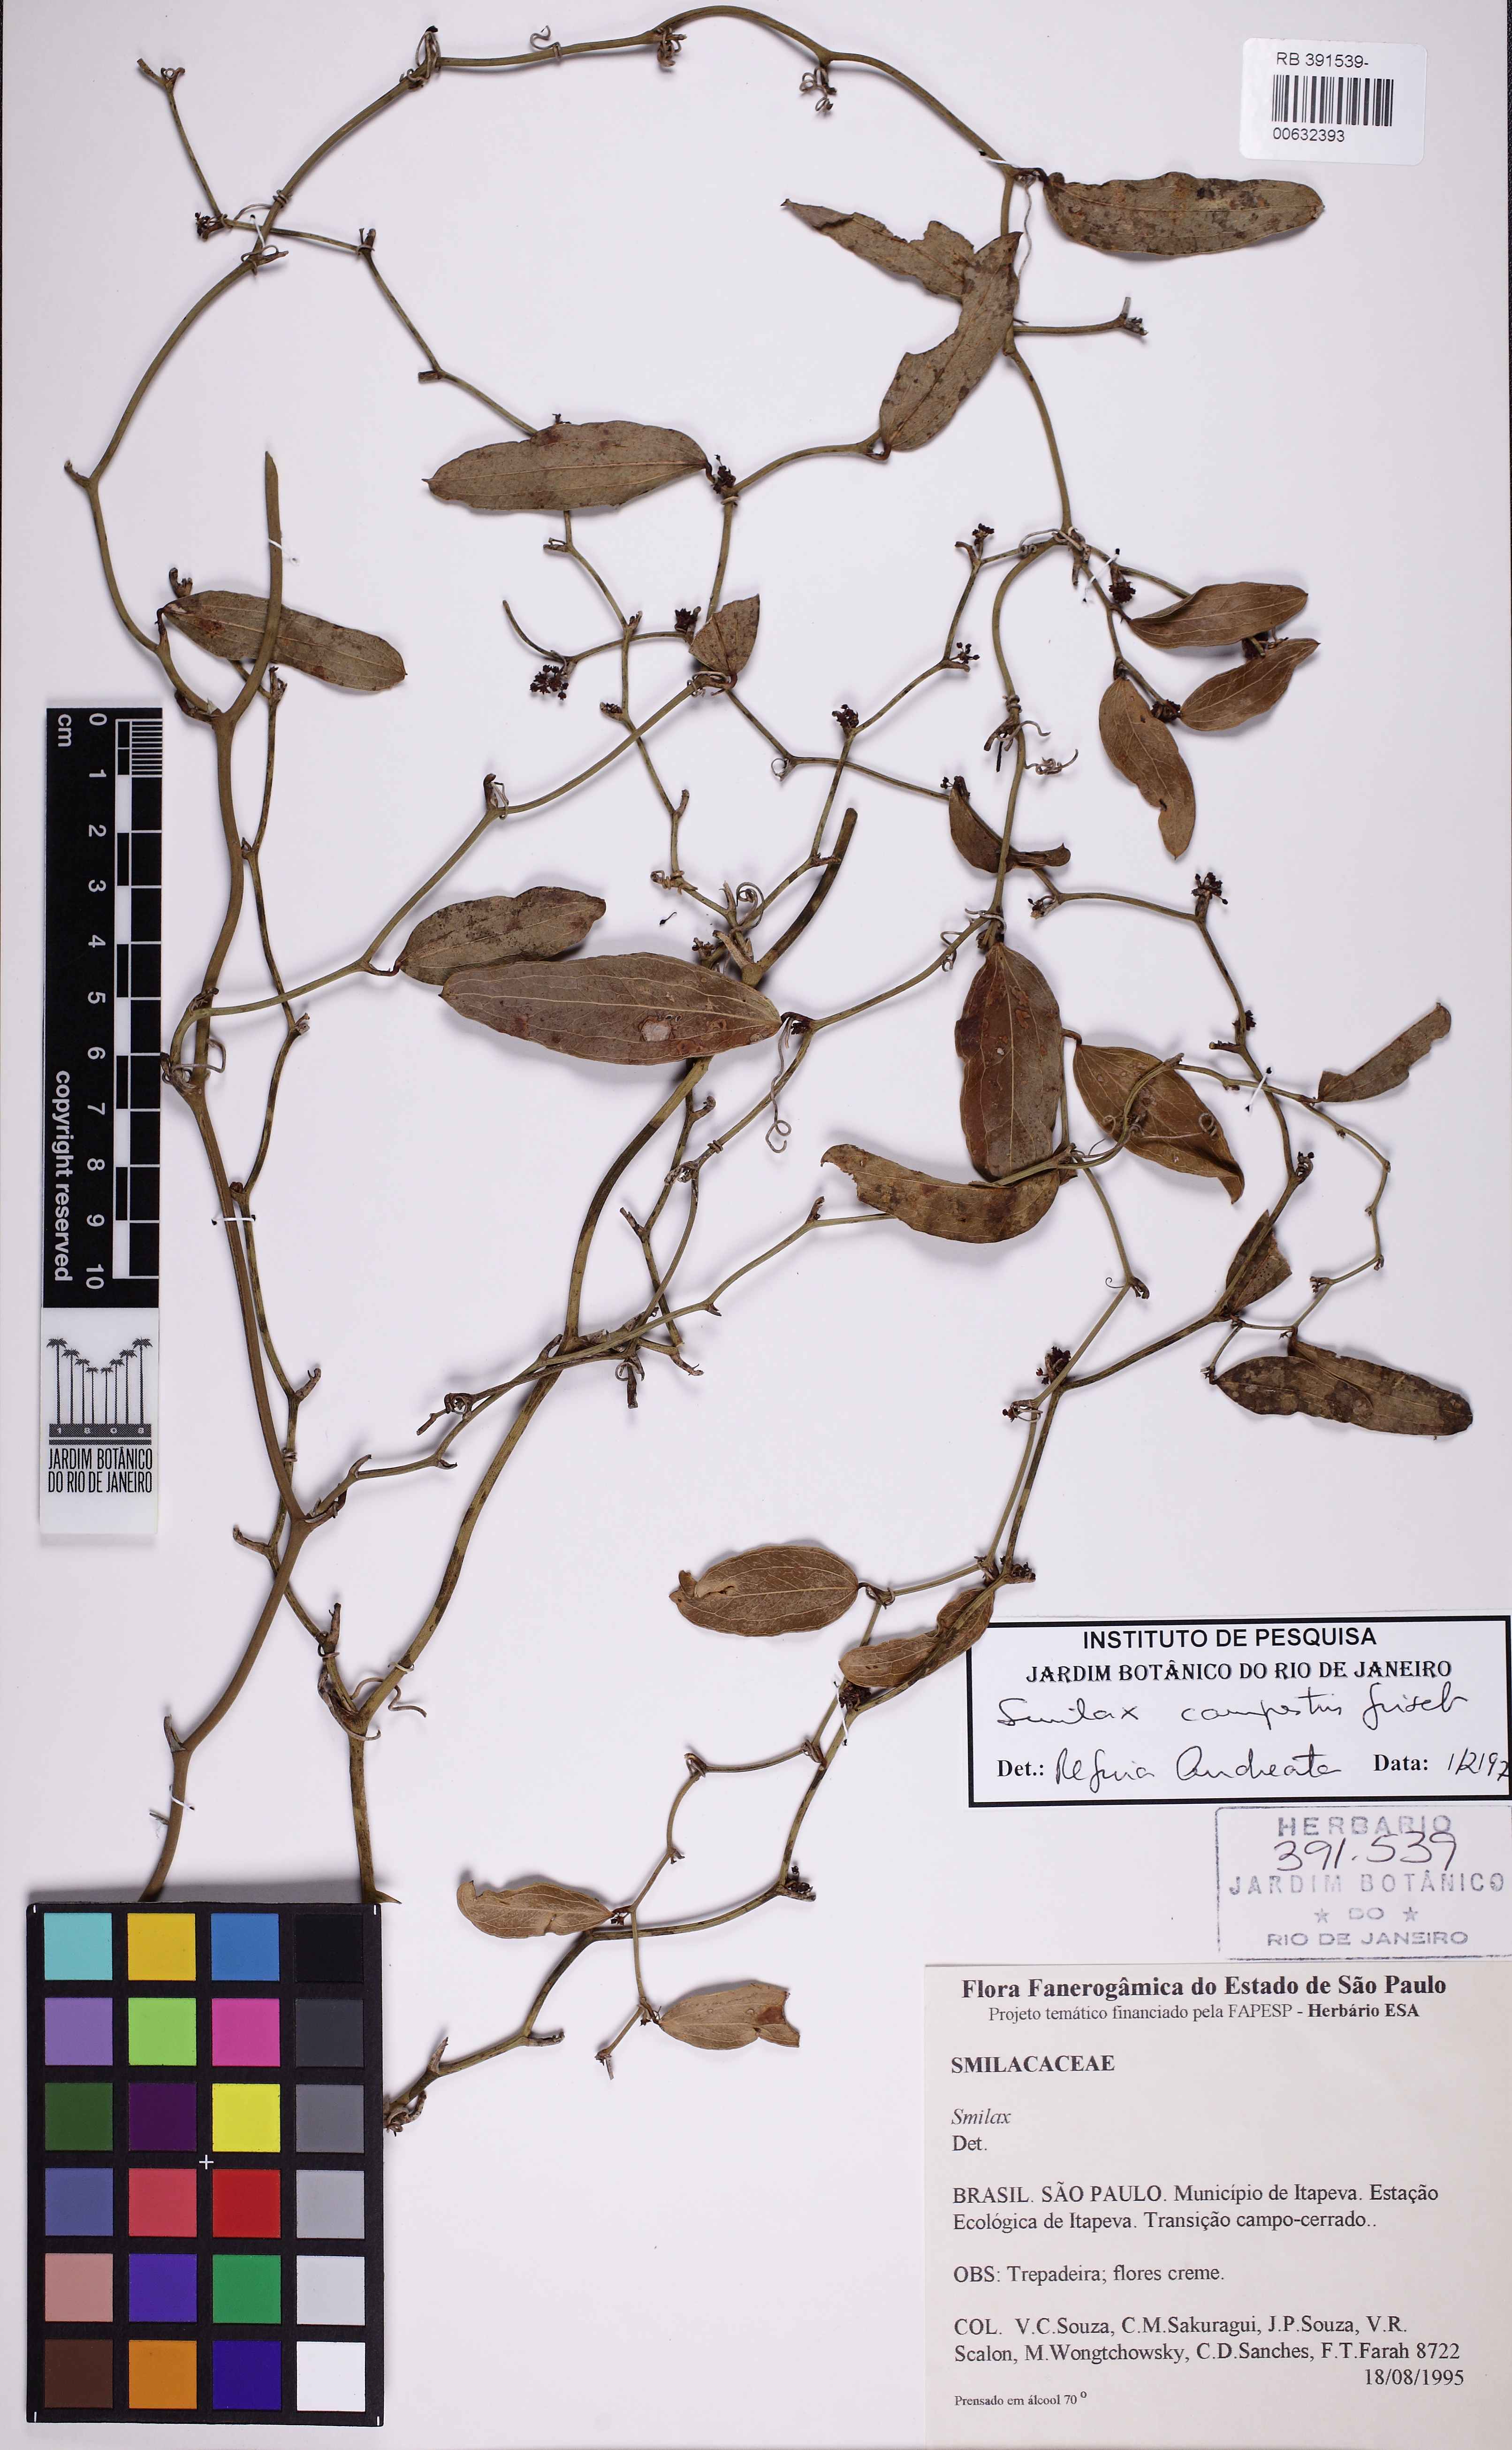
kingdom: Plantae
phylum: Tracheophyta
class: Liliopsida
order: Liliales
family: Smilacaceae
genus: Smilax
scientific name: Smilax campestris
